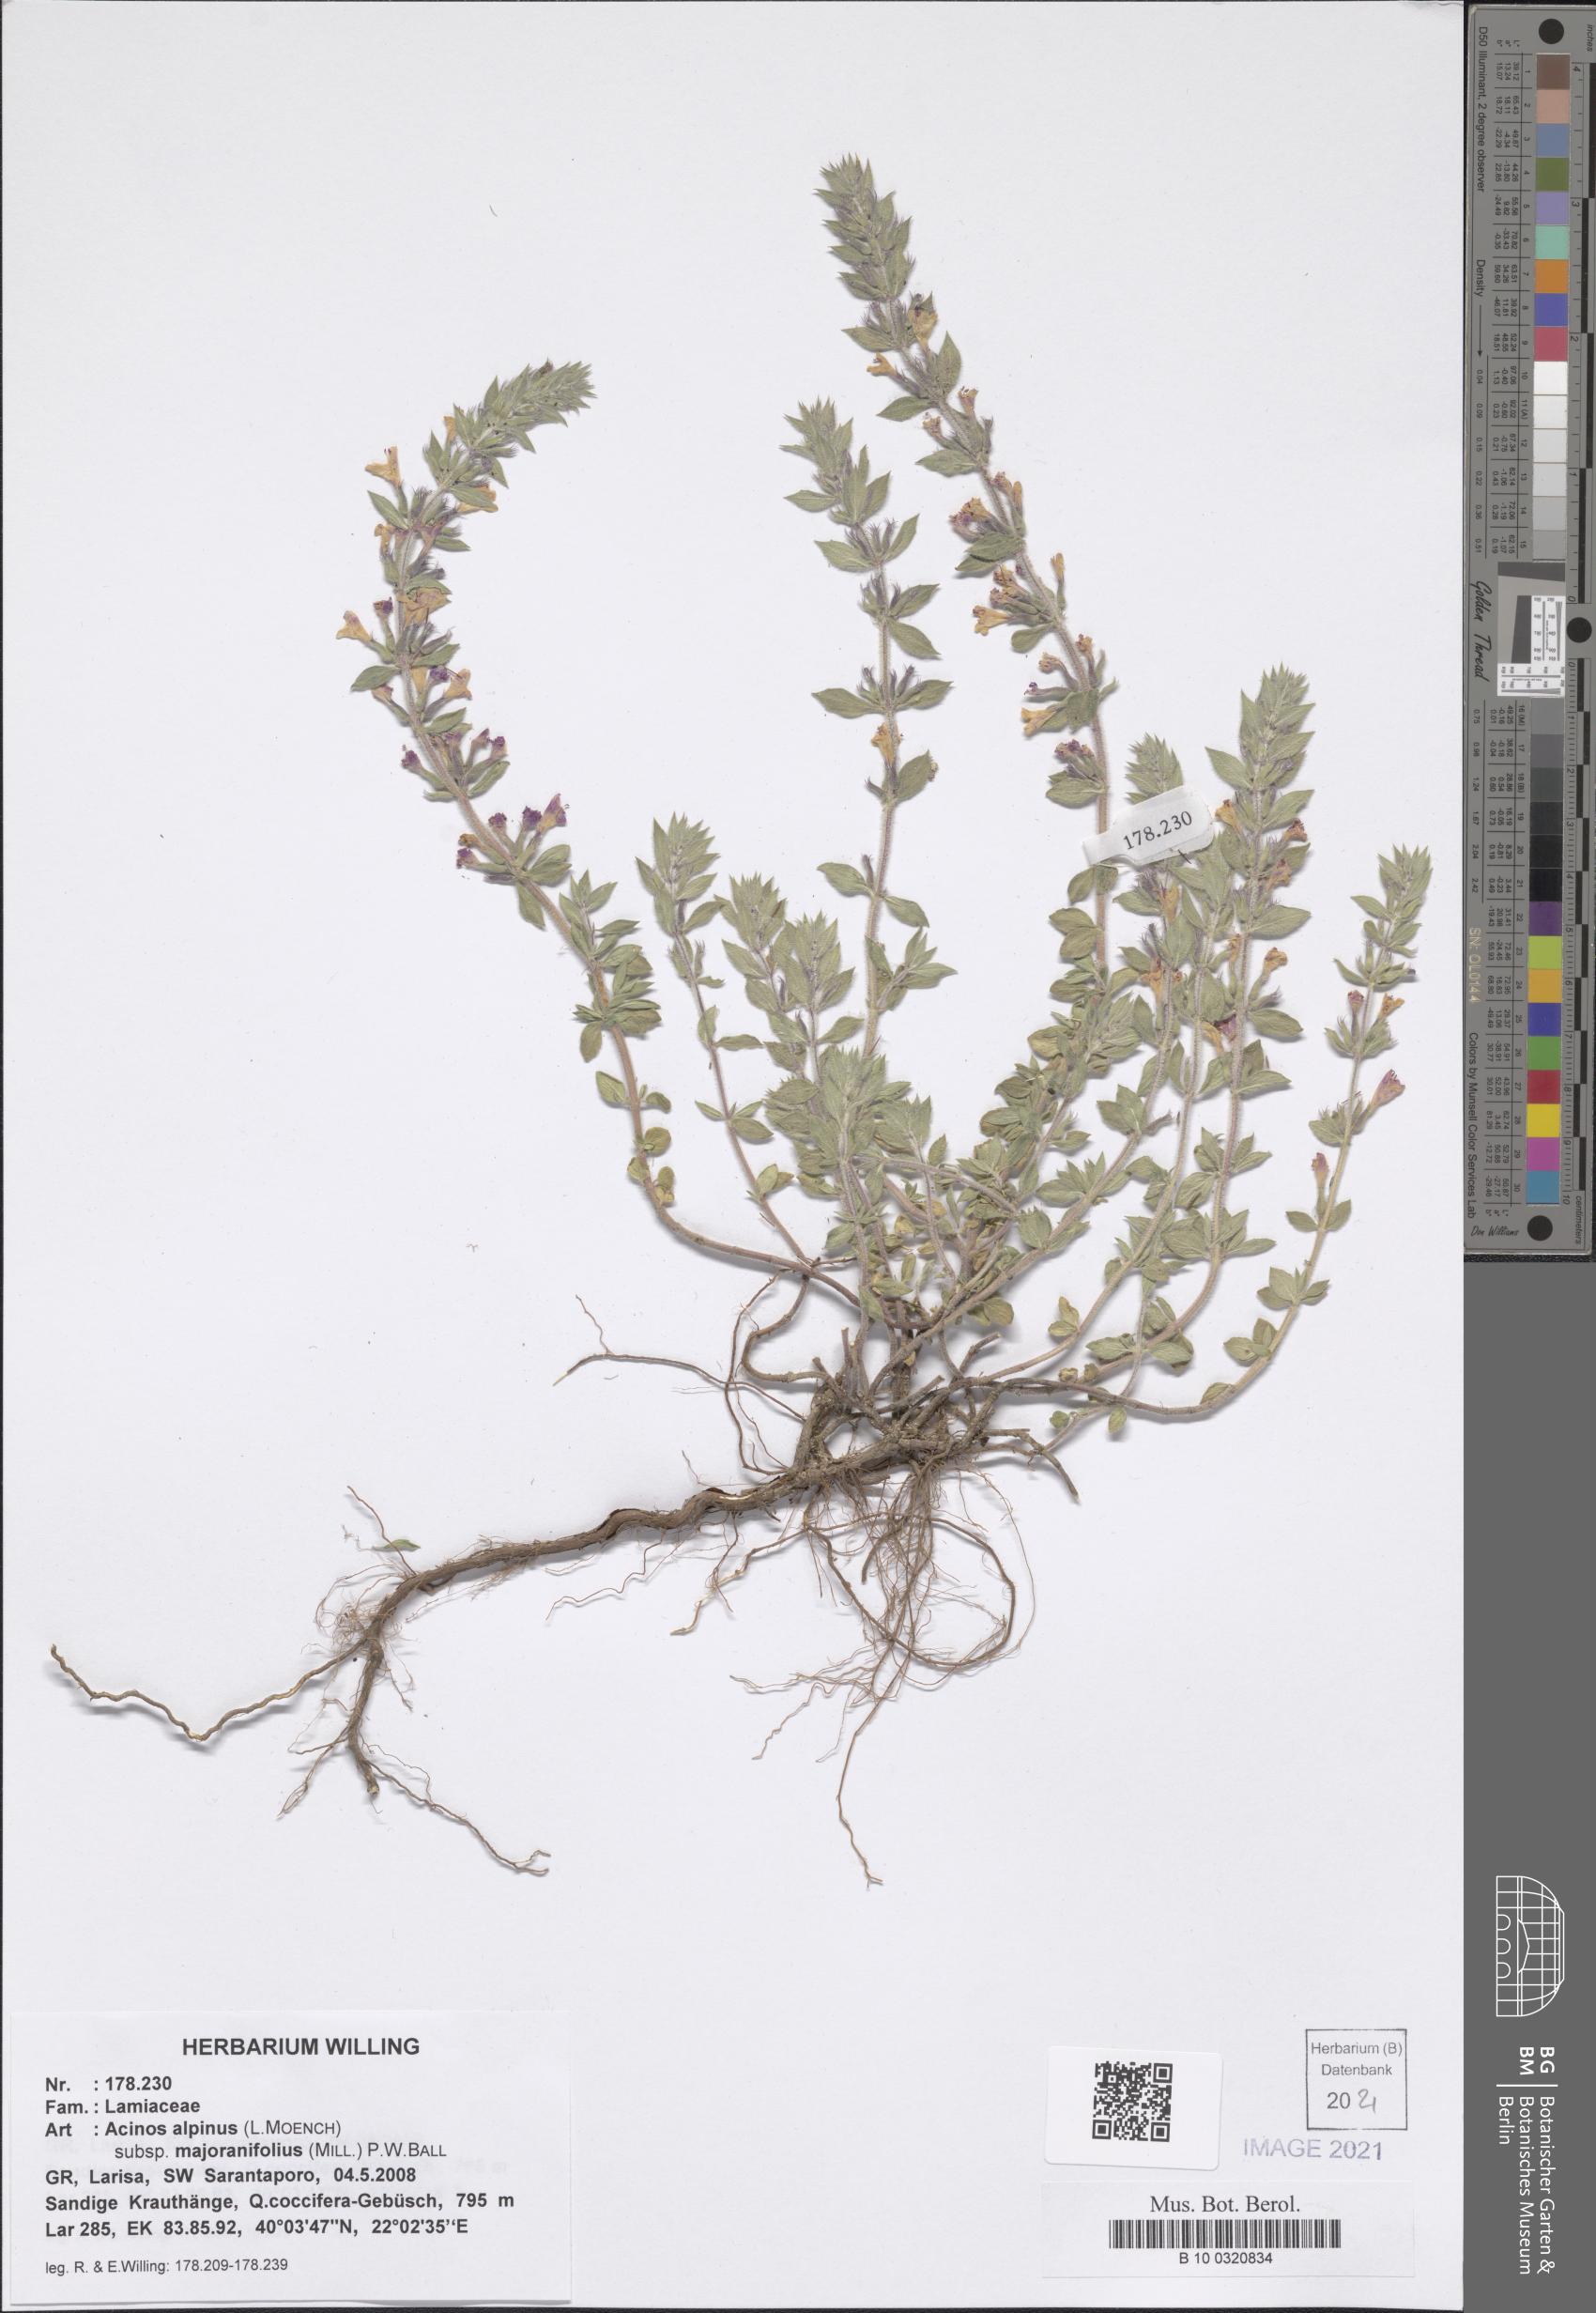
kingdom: Plantae
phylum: Tracheophyta
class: Magnoliopsida
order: Lamiales
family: Lamiaceae
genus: Clinopodium
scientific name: Clinopodium alpinum
